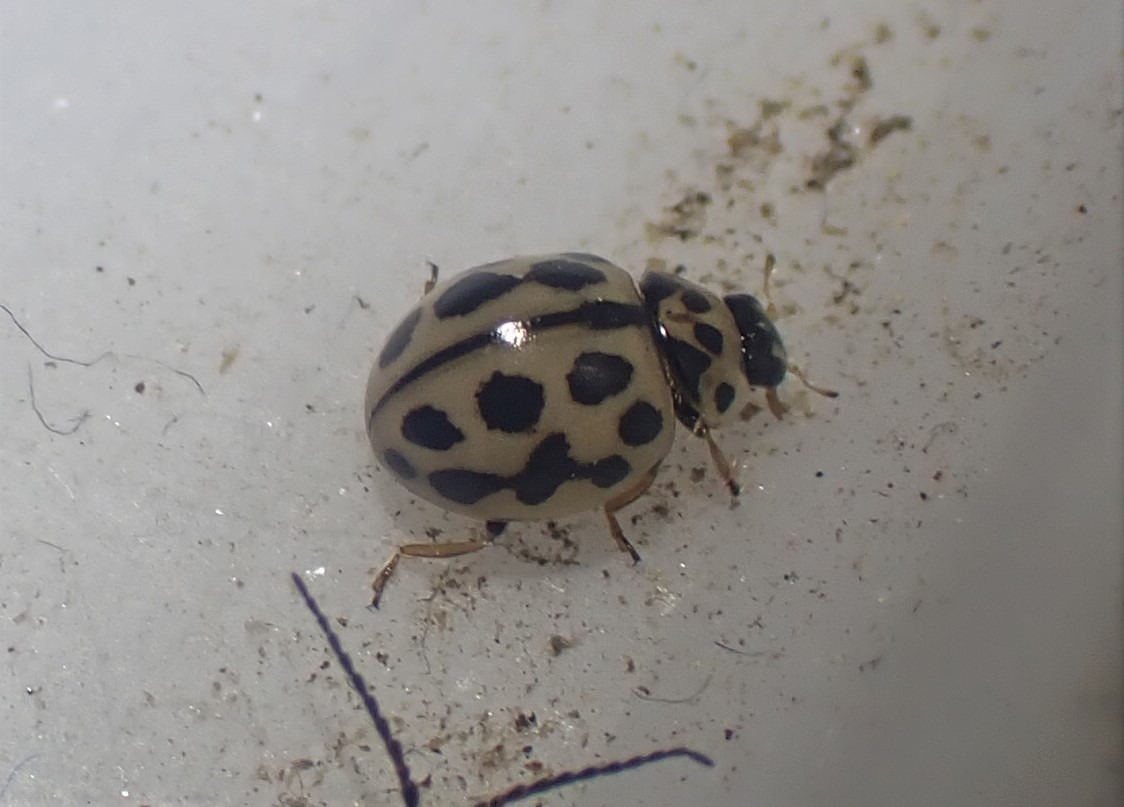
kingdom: Animalia
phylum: Arthropoda
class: Insecta
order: Coleoptera
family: Coccinellidae
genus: Tytthaspis
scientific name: Tytthaspis sedecimpunctata
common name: Sekstenprikket mariehøne
